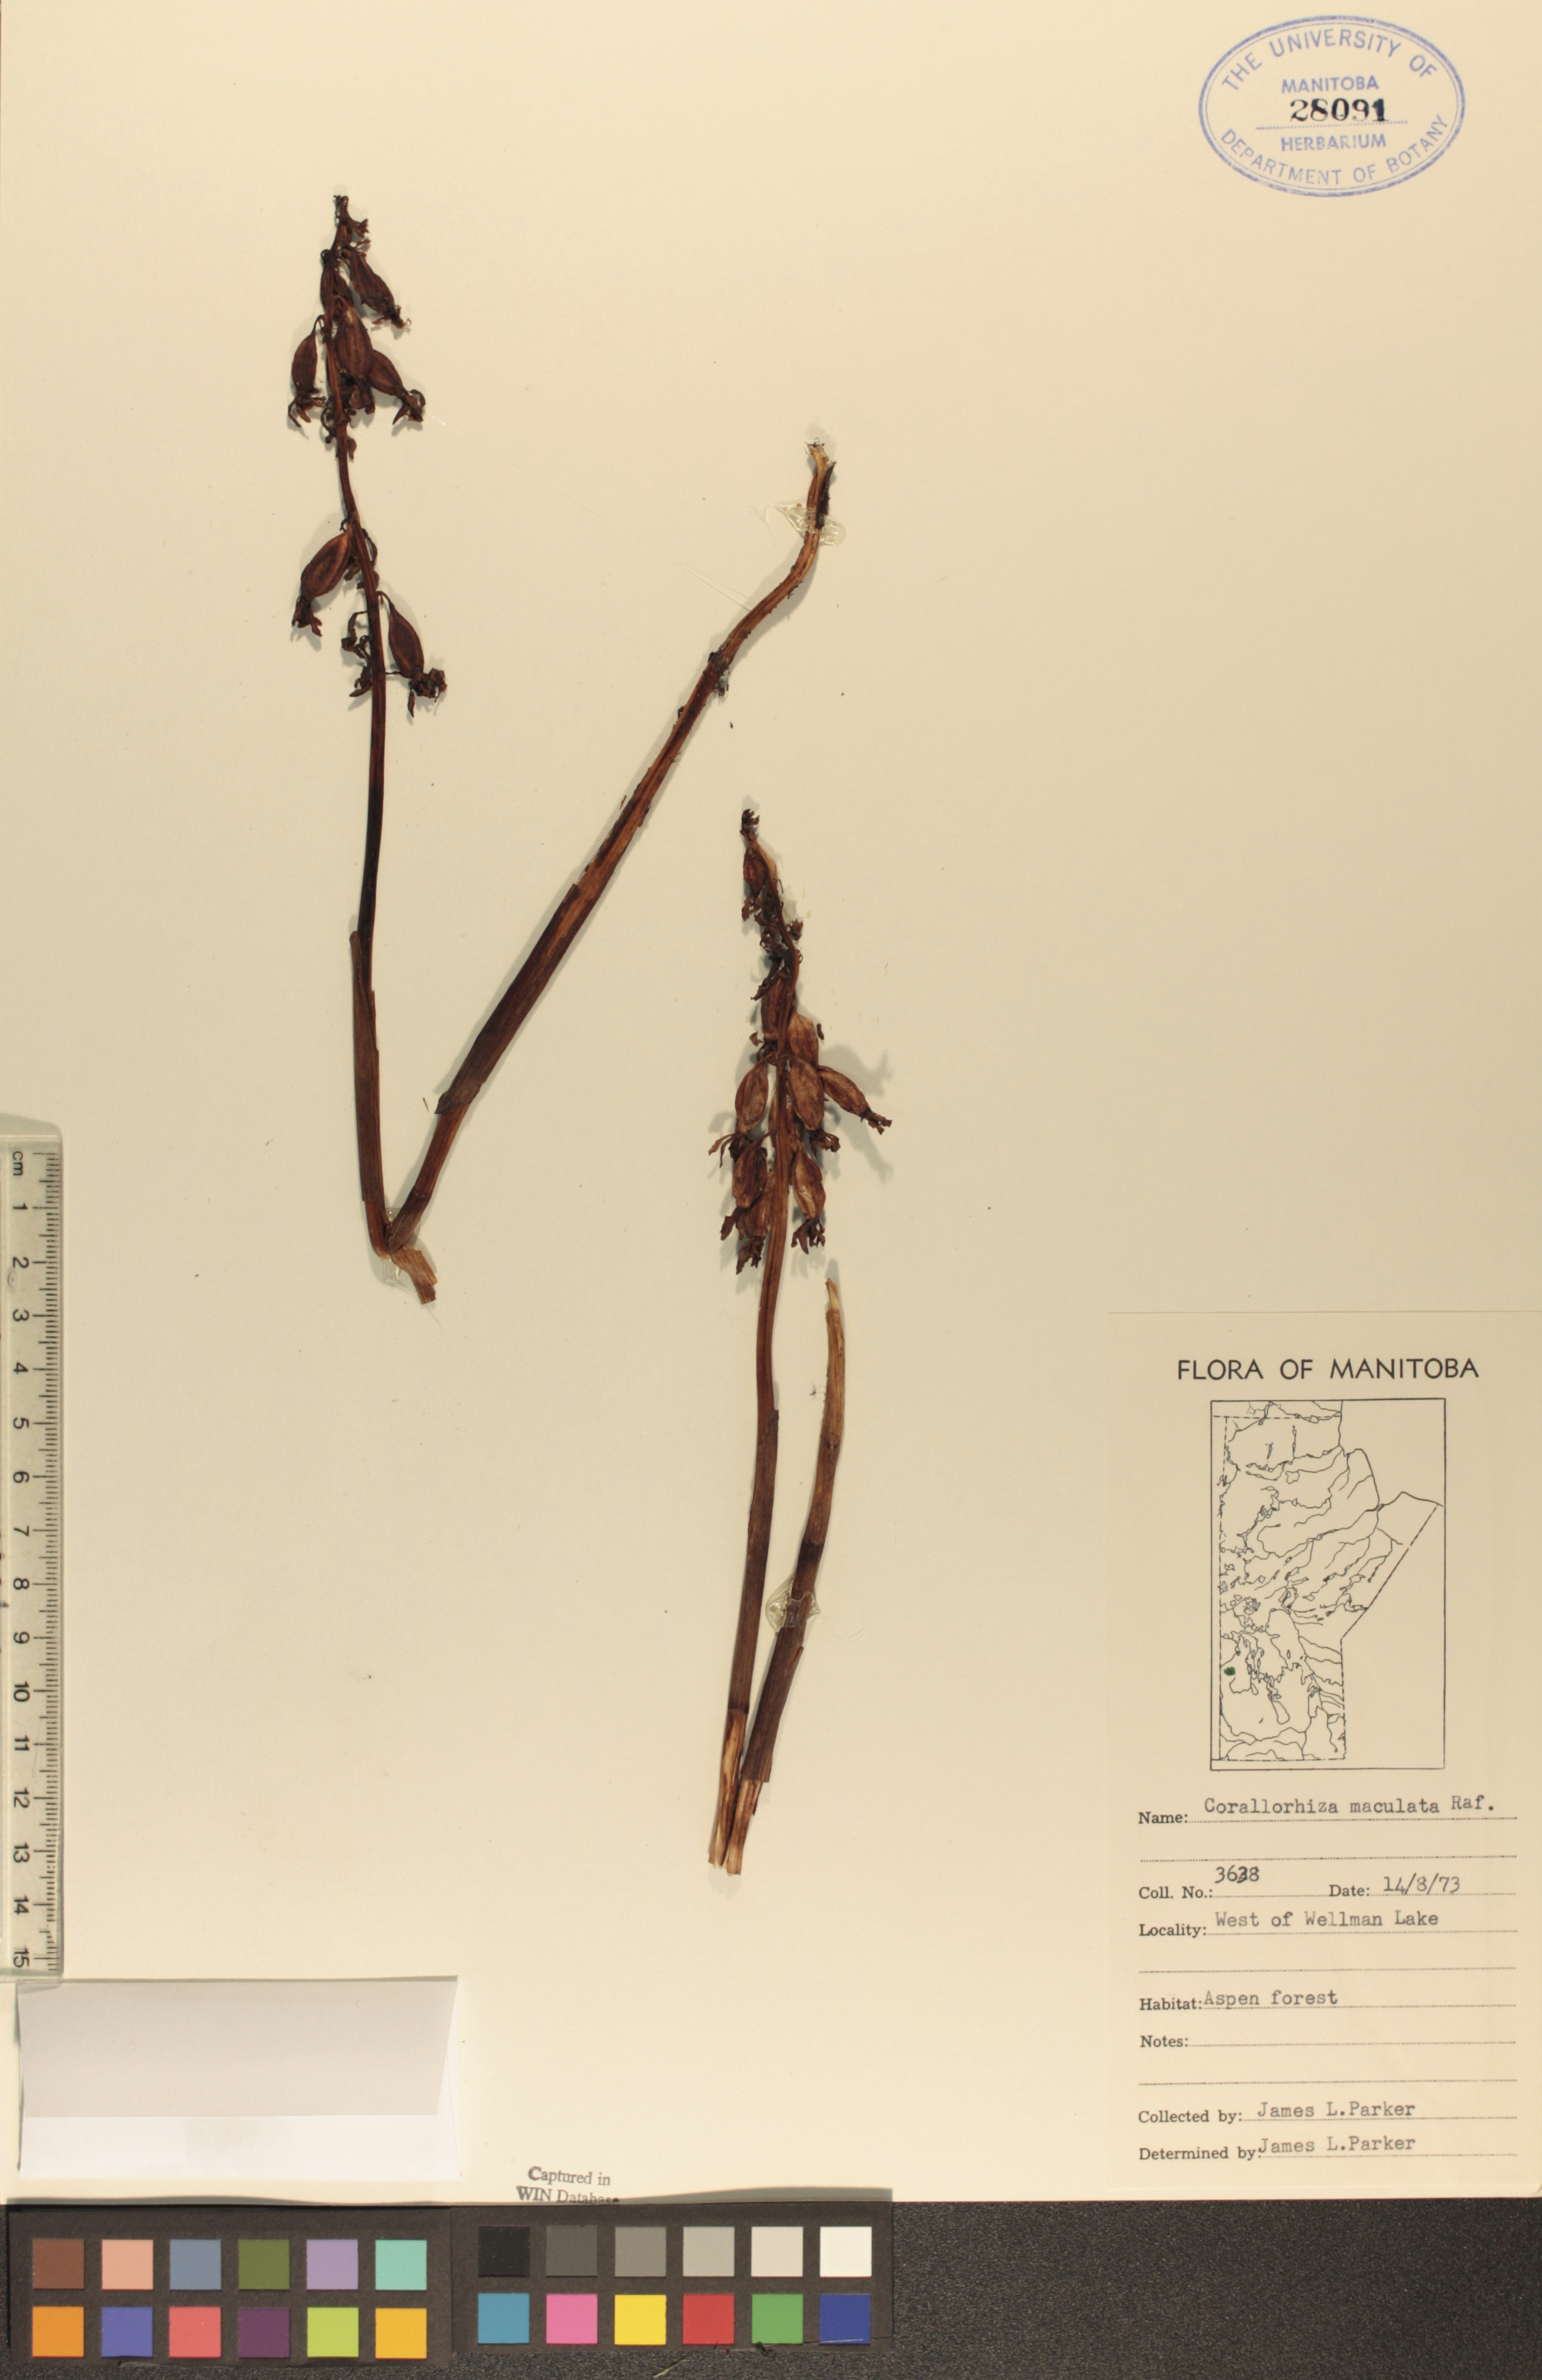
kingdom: Plantae
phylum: Tracheophyta
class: Liliopsida
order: Asparagales
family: Orchidaceae
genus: Corallorhiza
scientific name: Corallorhiza maculata
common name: Spotted coralroot
